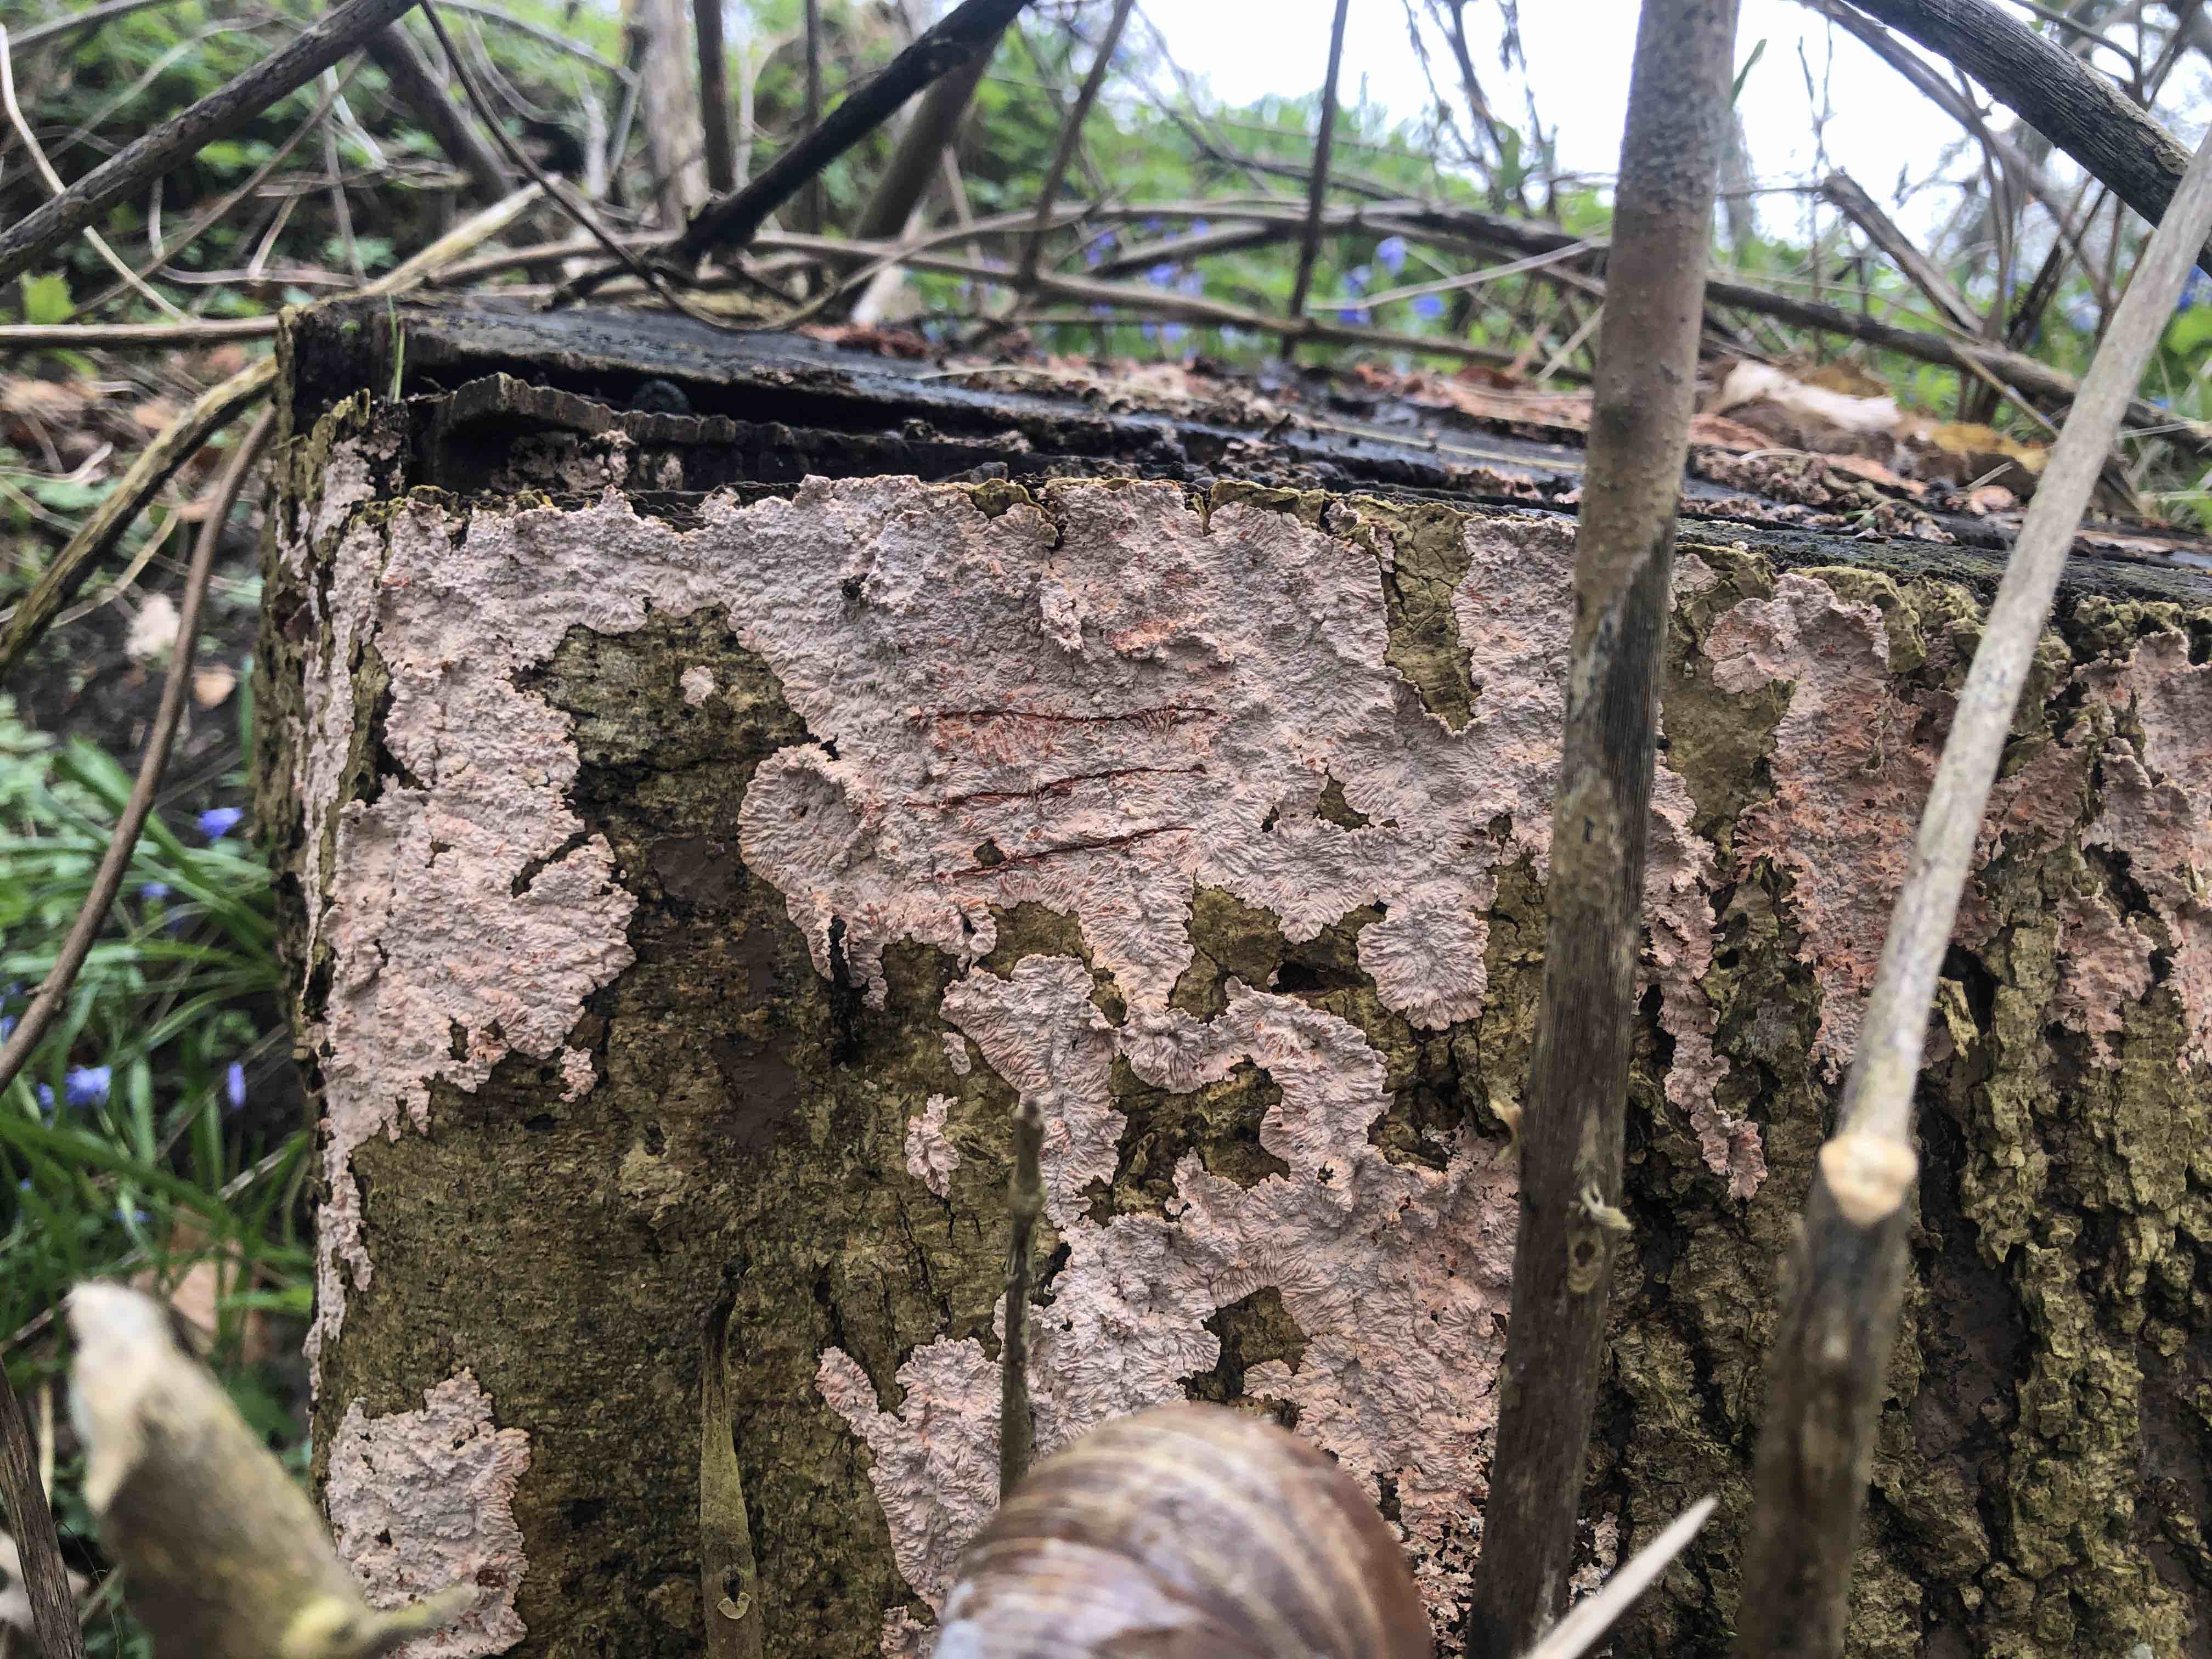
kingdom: Fungi
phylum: Basidiomycota
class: Agaricomycetes
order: Corticiales
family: Corticiaceae
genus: Corticium
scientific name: Corticium roseum
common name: rosa barkskind
